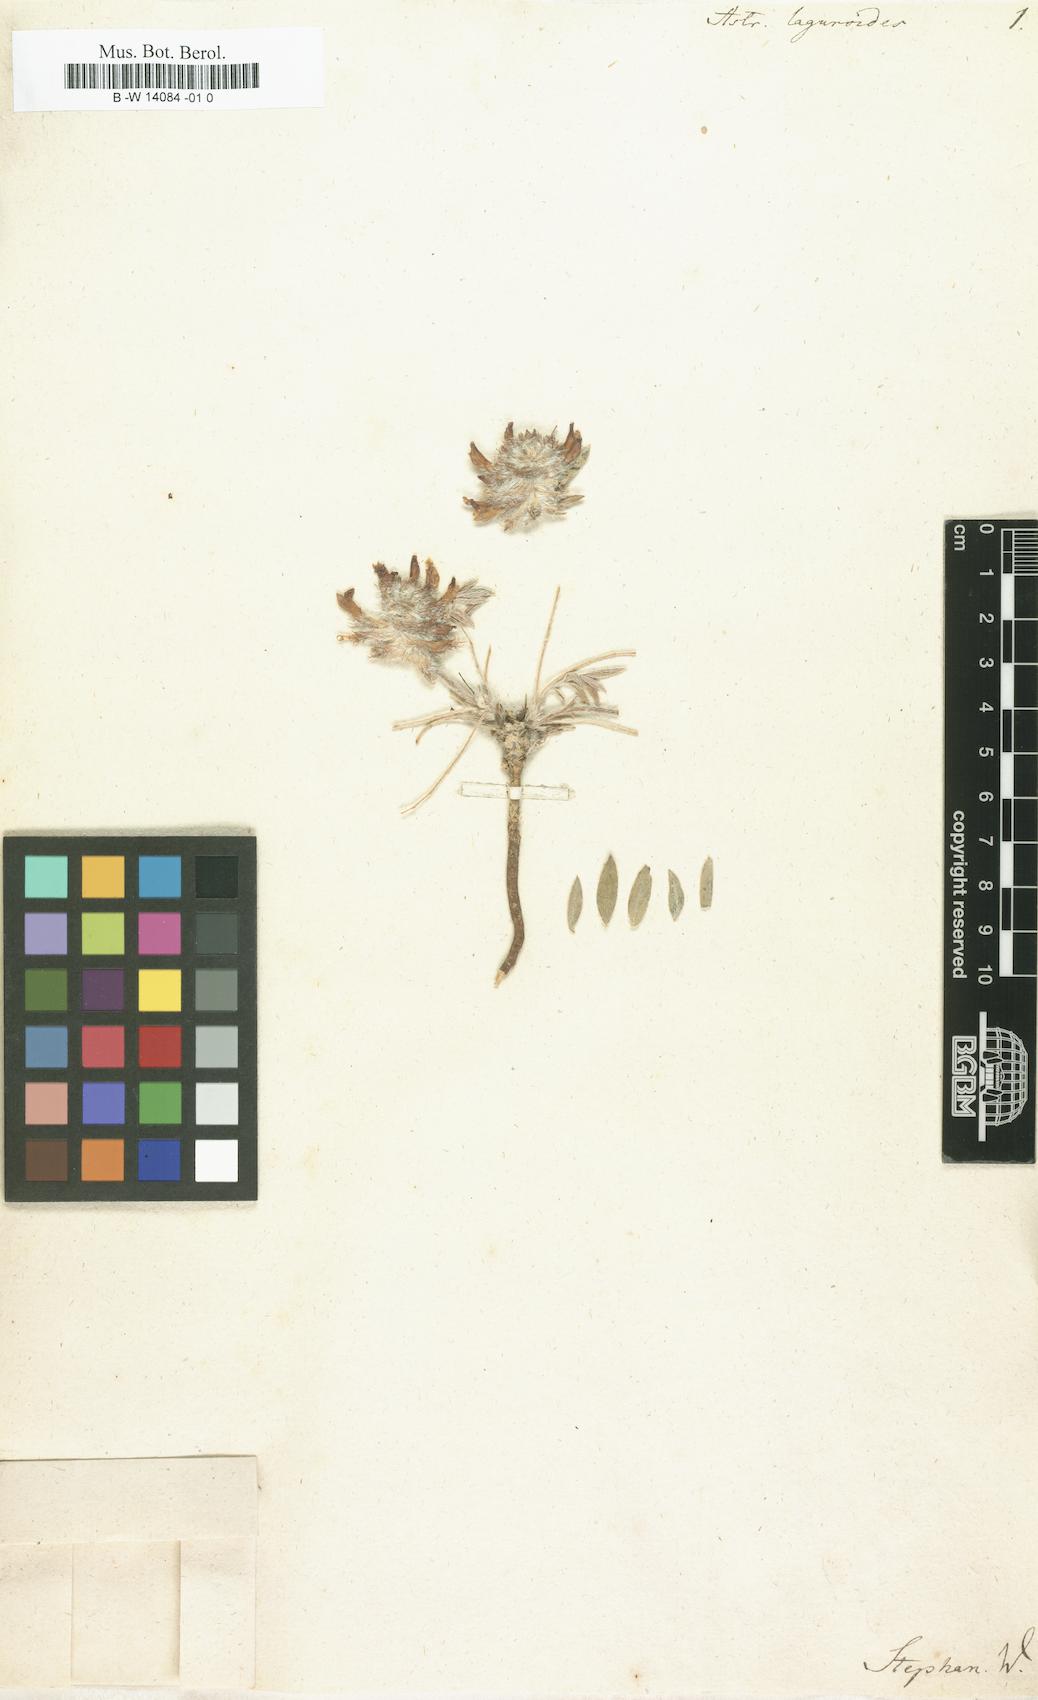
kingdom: Plantae
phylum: Tracheophyta
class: Magnoliopsida
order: Fabales
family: Fabaceae
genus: Astragalus
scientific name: Astragalus laguroides
